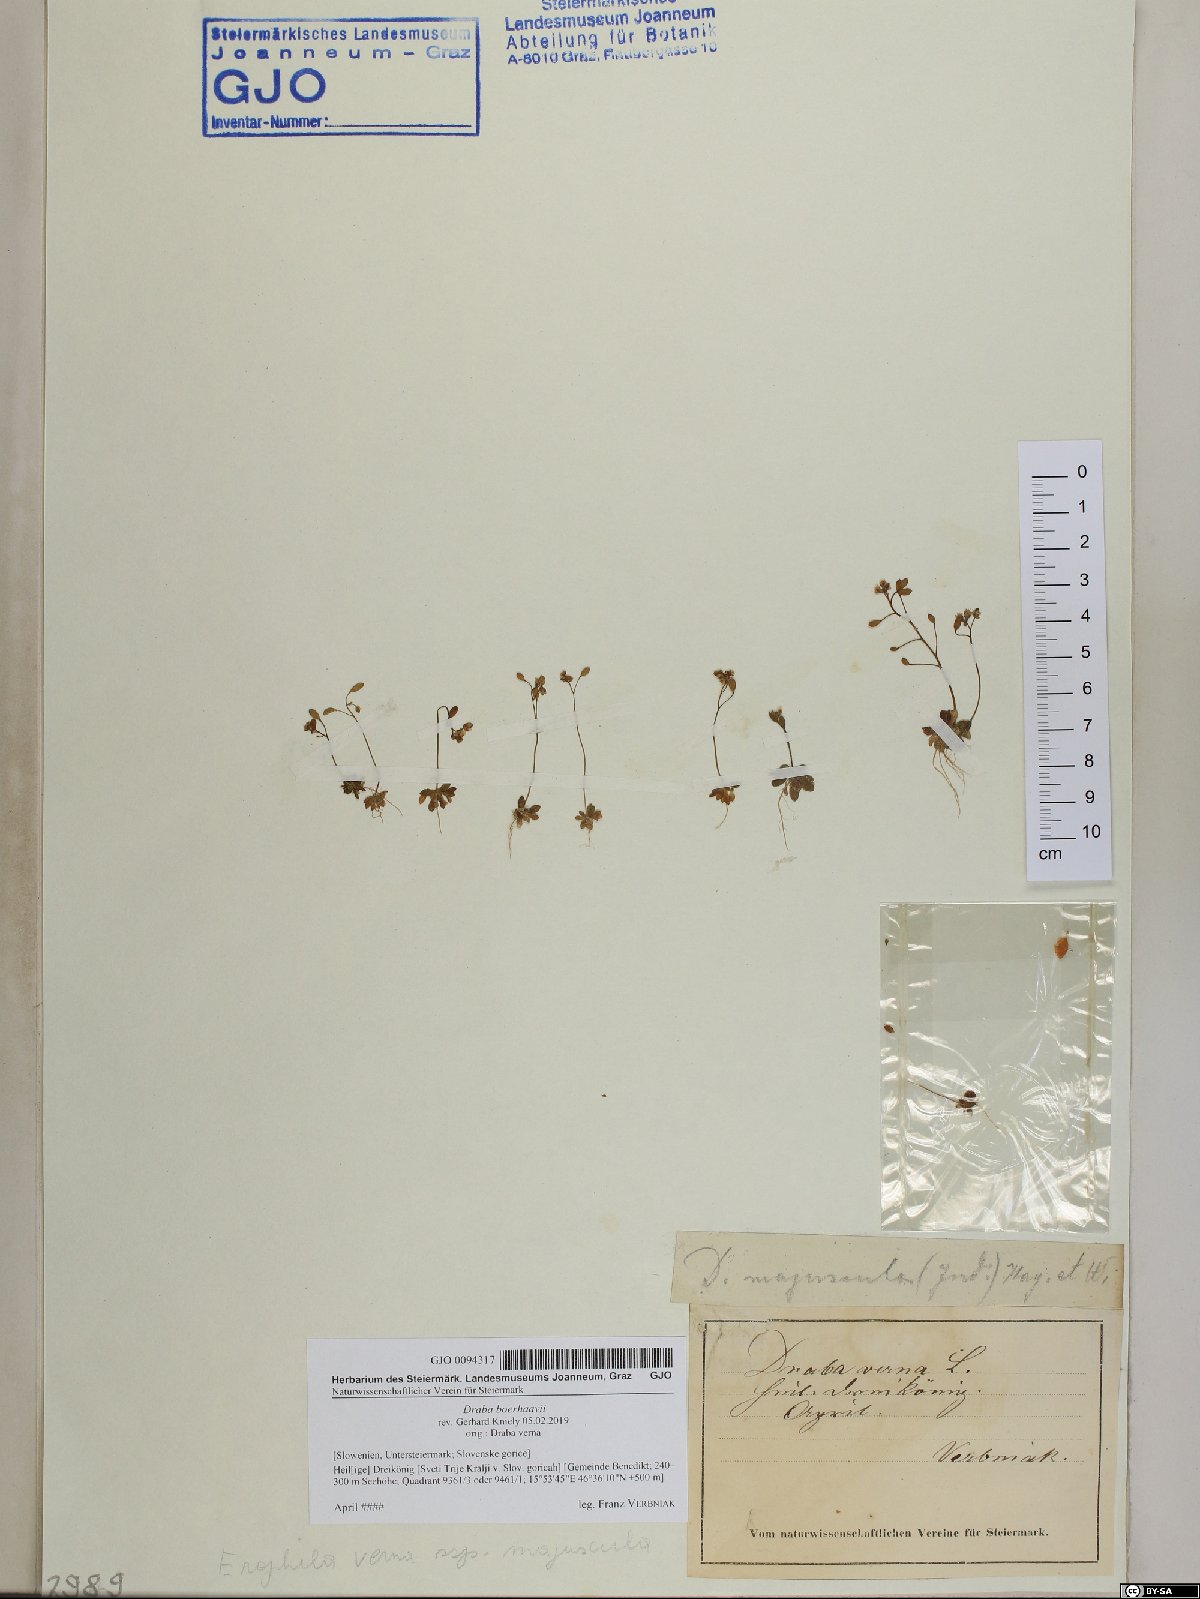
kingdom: Plantae
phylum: Tracheophyta
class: Magnoliopsida
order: Brassicales
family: Brassicaceae
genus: Draba
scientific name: Draba verna
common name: Spring draba
